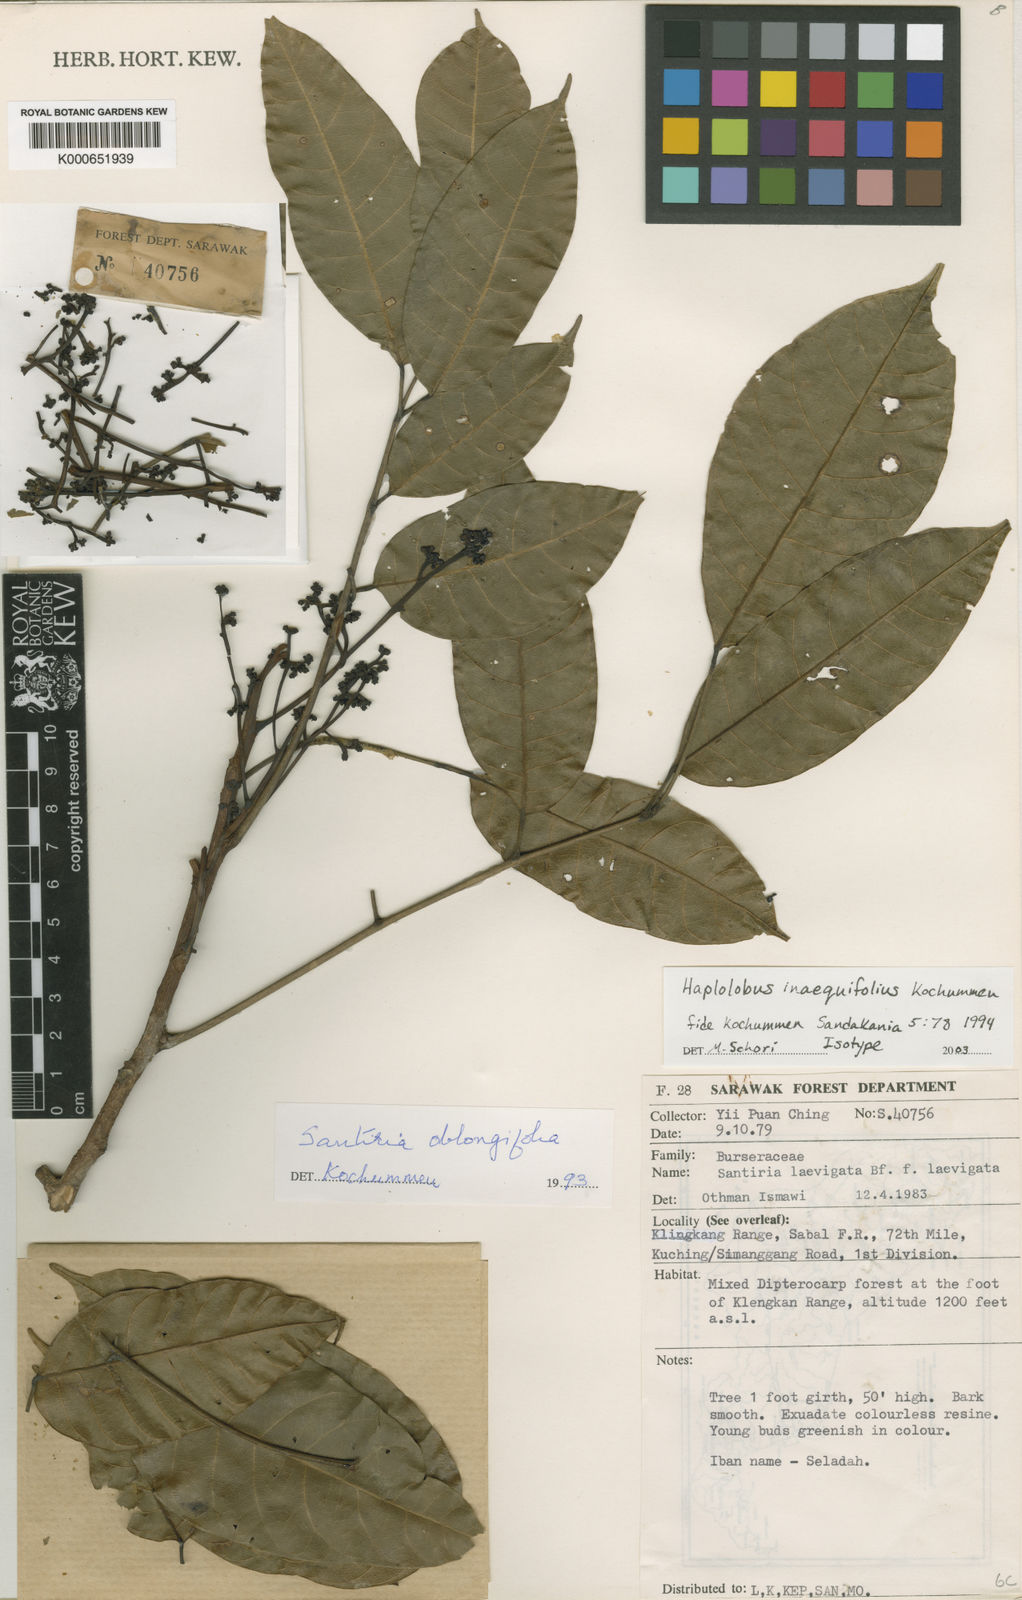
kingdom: Plantae
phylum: Tracheophyta
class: Magnoliopsida
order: Sapindales
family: Burseraceae
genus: Haplolobus
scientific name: Haplolobus inaequifolius
